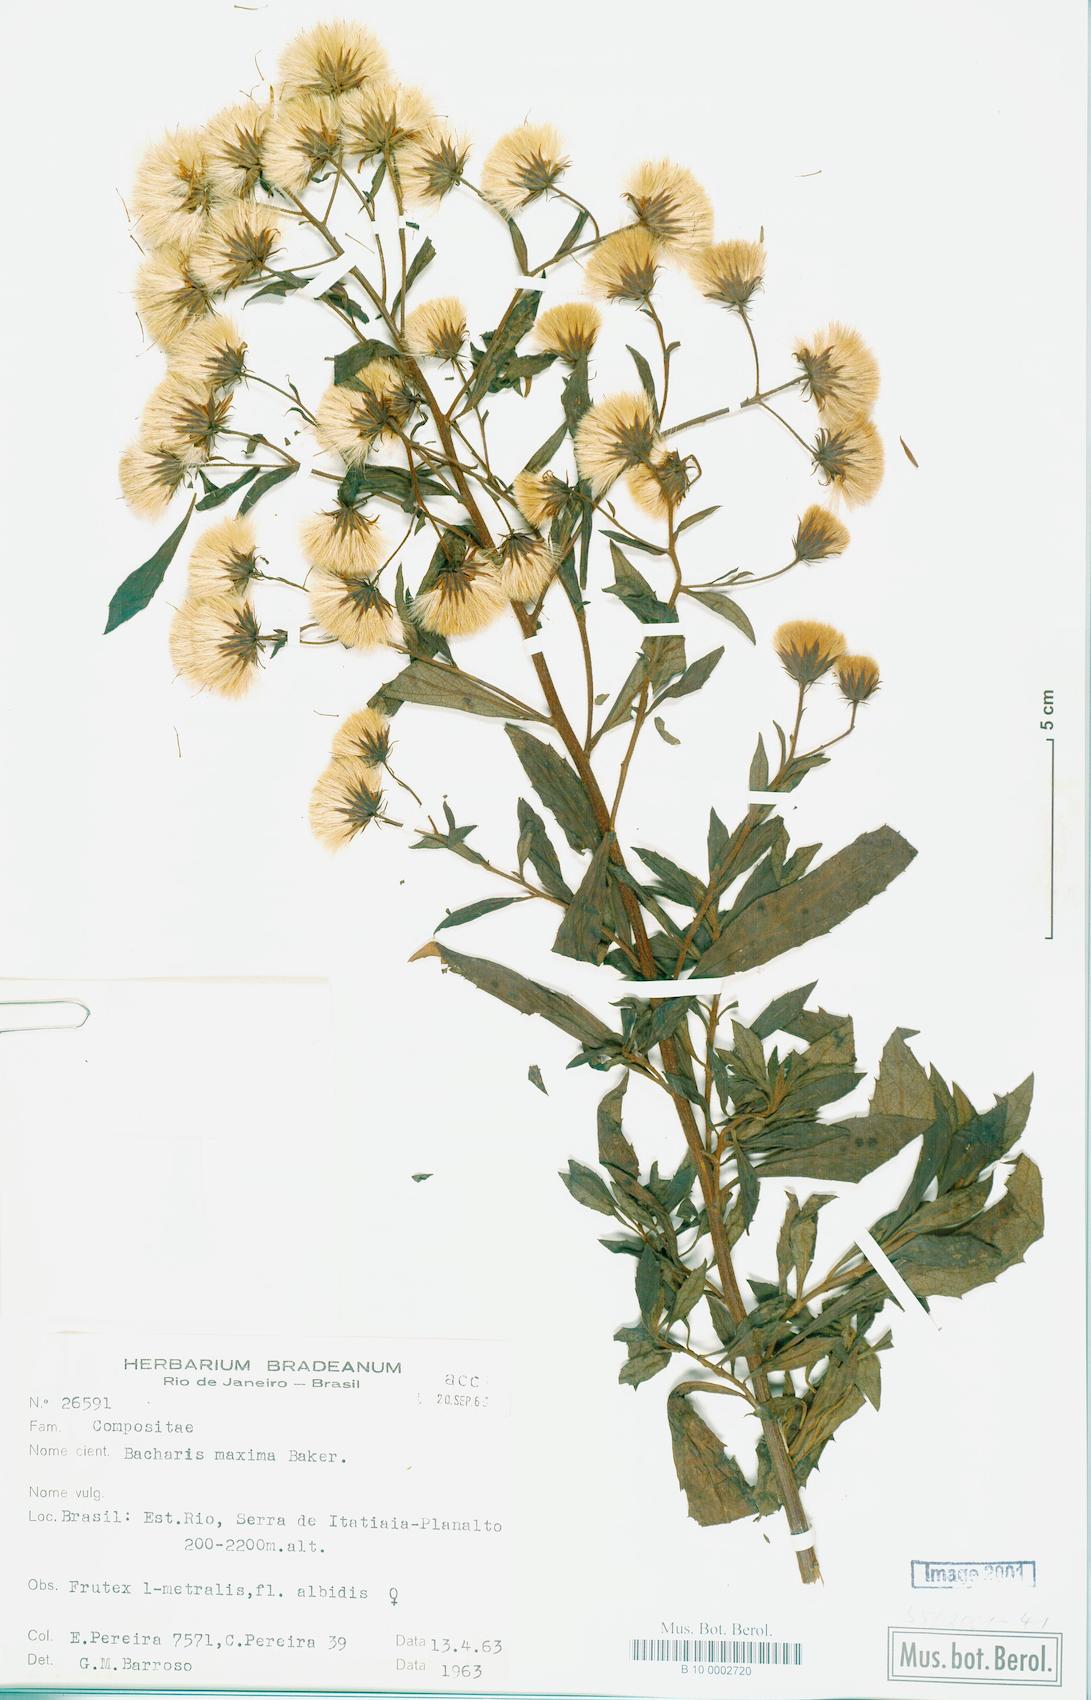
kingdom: Plantae
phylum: Tracheophyta
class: Magnoliopsida
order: Asterales
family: Asteraceae
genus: Baccharis
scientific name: Baccharis maxima
